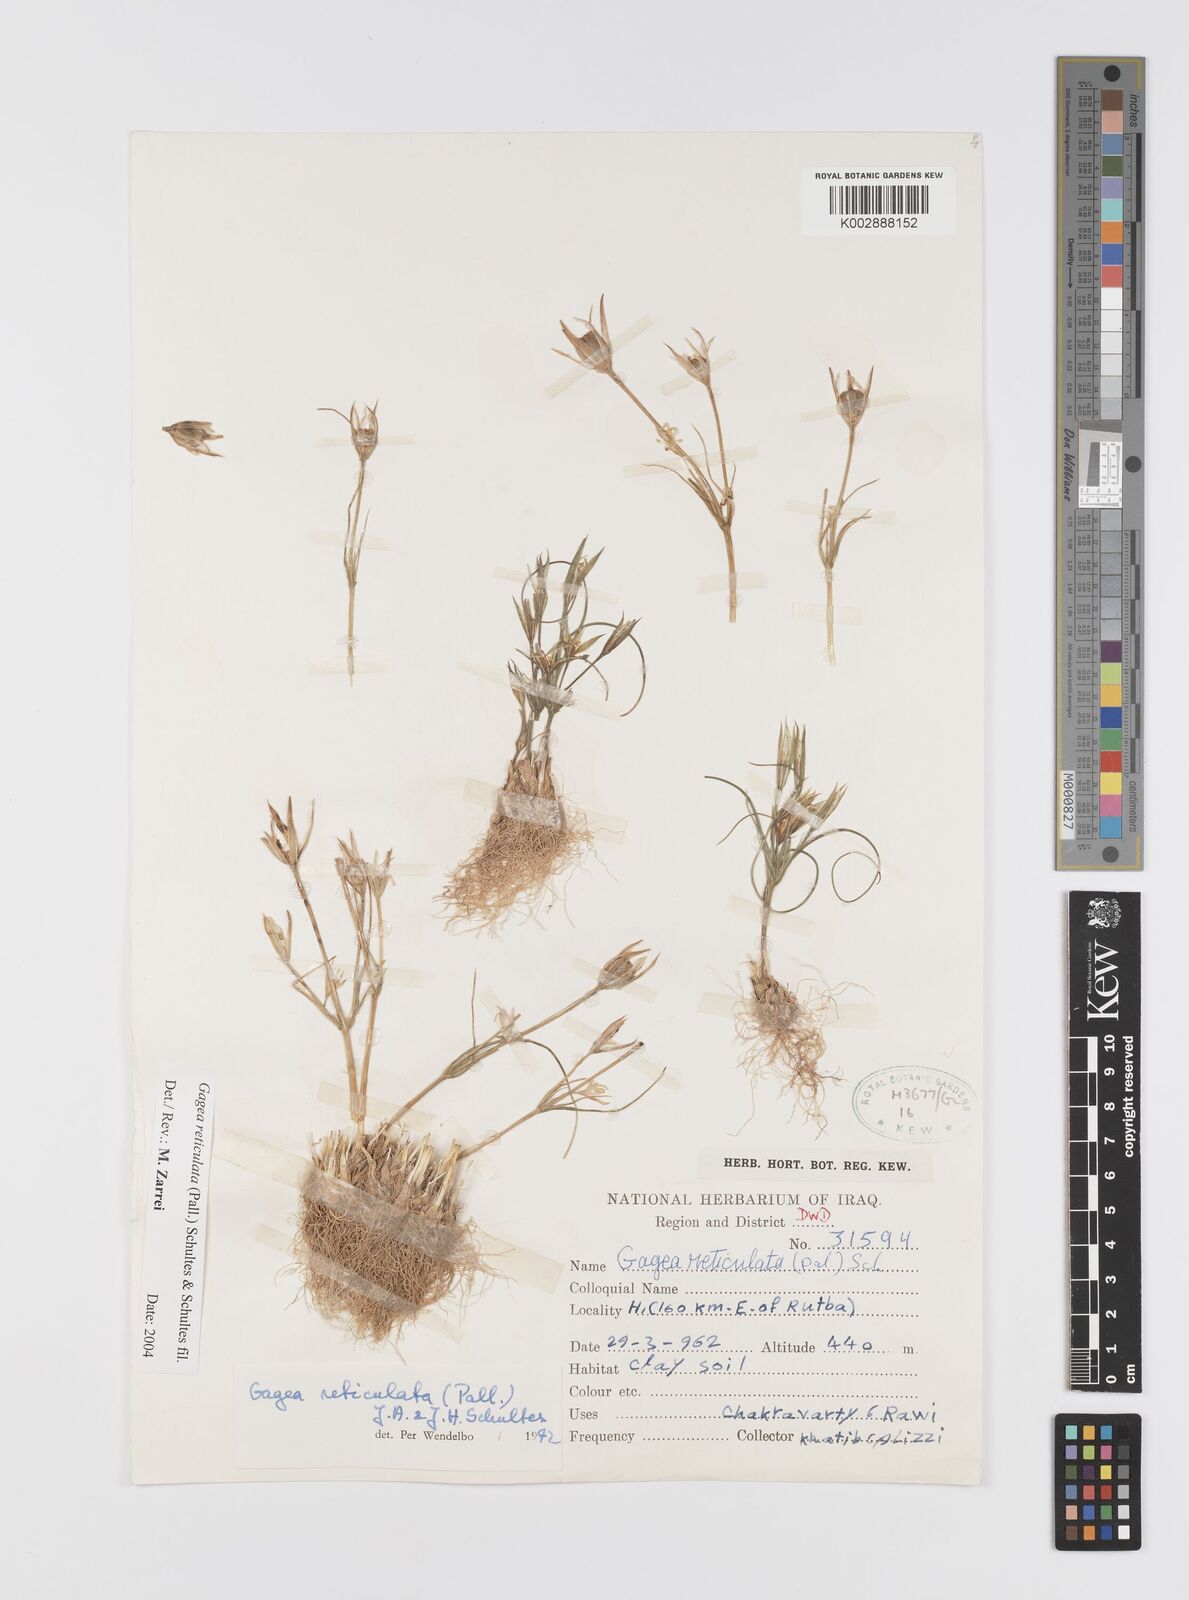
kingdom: Plantae
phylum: Tracheophyta
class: Liliopsida
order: Liliales
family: Liliaceae
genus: Gagea
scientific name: Gagea reticulata
